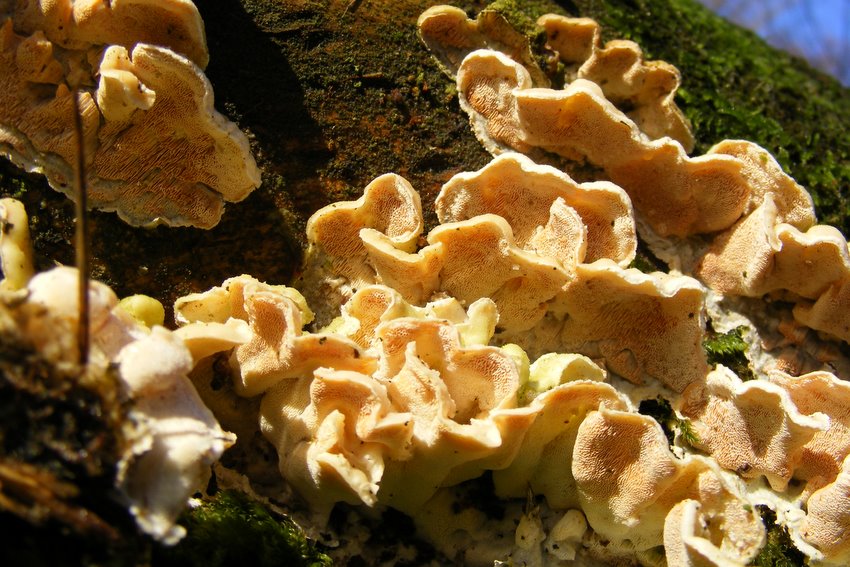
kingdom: Fungi
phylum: Basidiomycota
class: Agaricomycetes
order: Polyporales
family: Incrustoporiaceae
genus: Skeletocutis
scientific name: Skeletocutis amorpha
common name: orange krystalporesvamp
